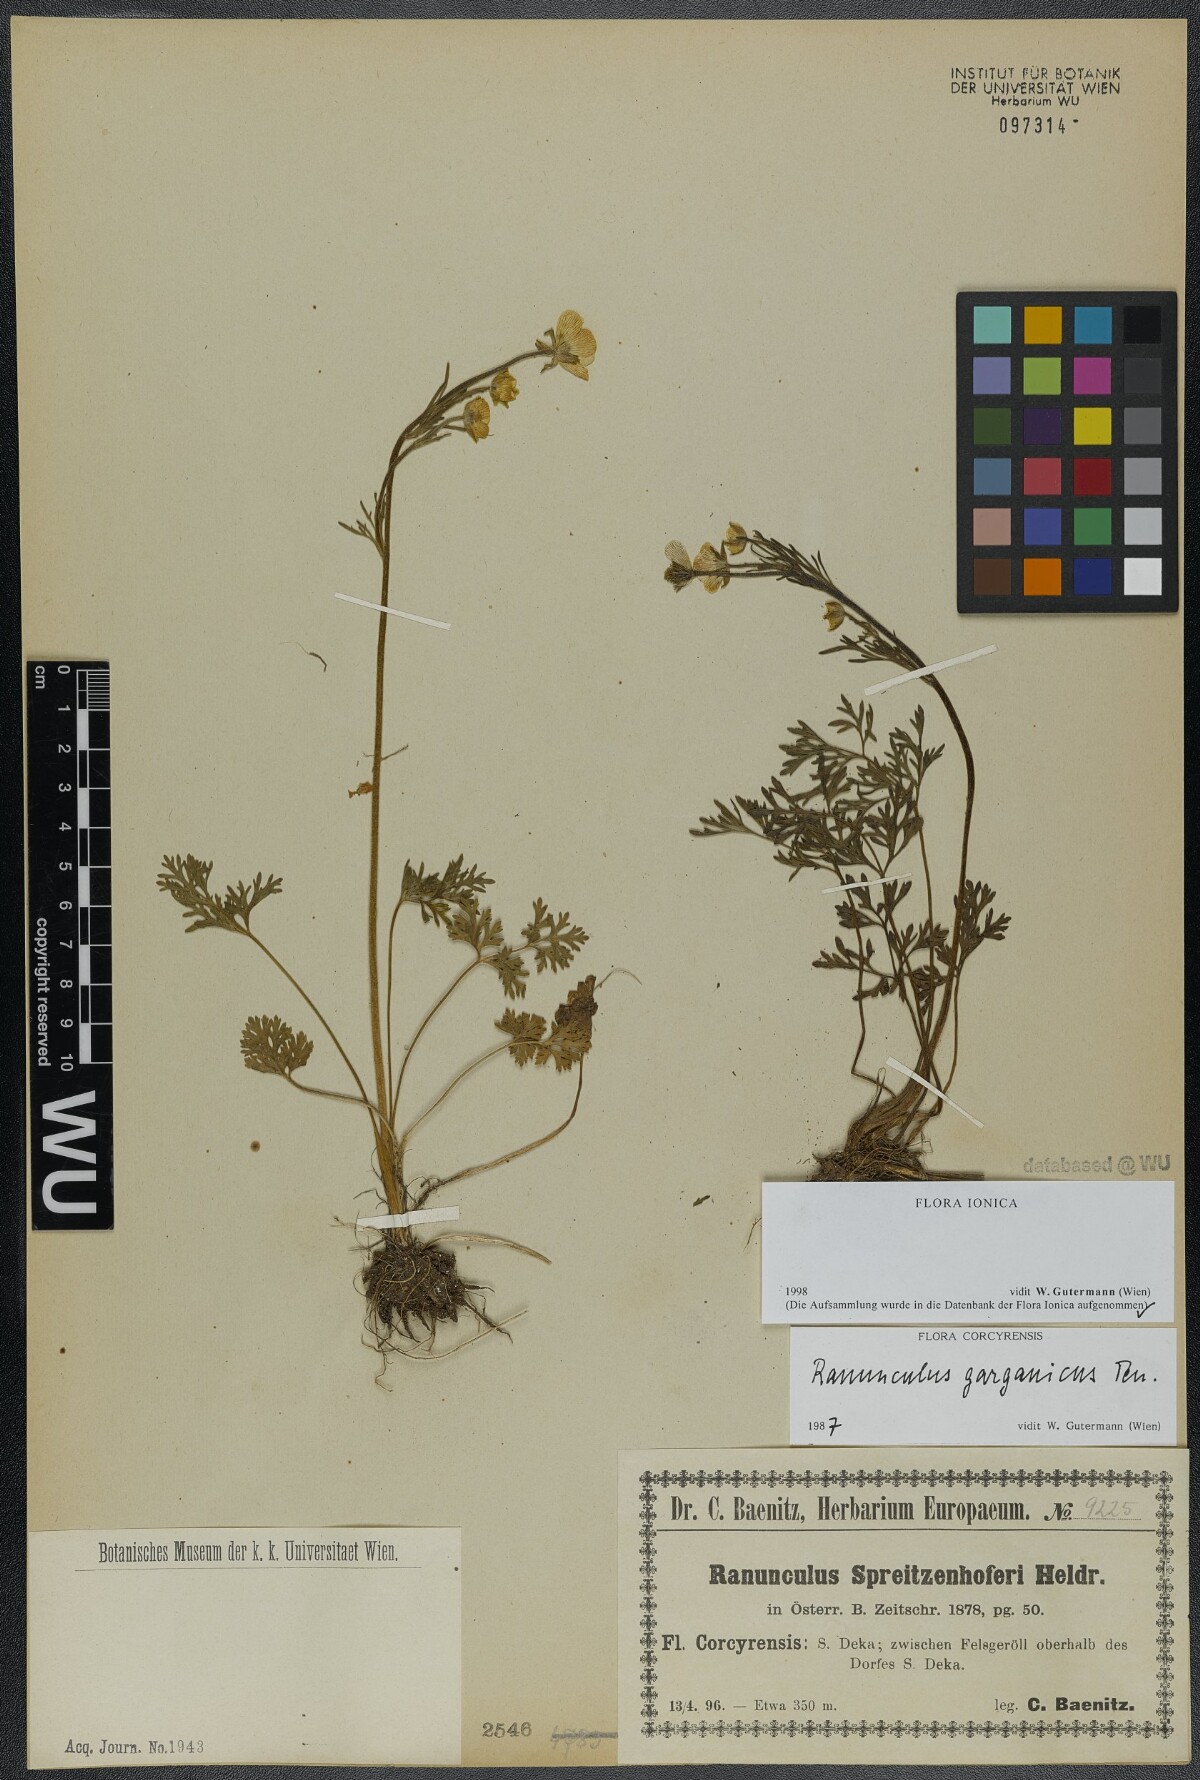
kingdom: Plantae
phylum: Tracheophyta
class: Magnoliopsida
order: Ranunculales
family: Ranunculaceae
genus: Ranunculus
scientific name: Ranunculus garganicus
